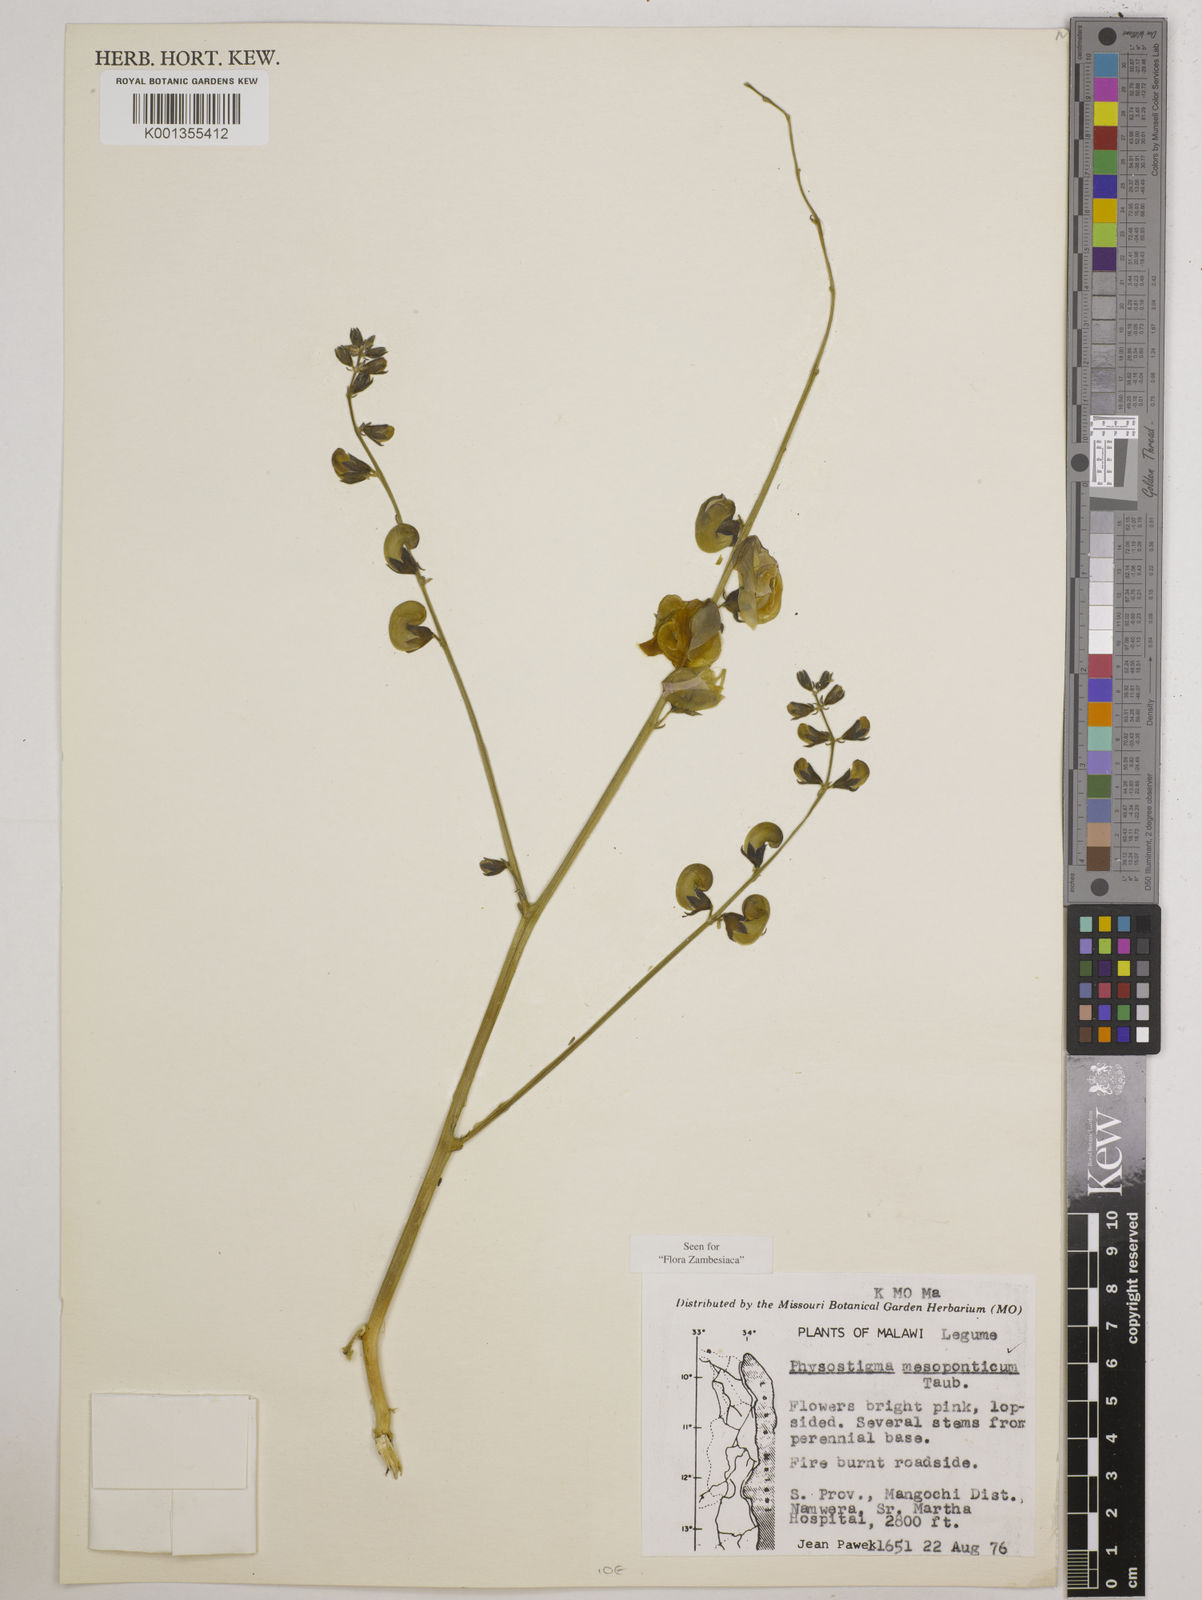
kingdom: Plantae
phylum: Tracheophyta
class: Magnoliopsida
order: Fabales
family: Fabaceae
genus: Physostigma
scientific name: Physostigma mesoponticum
